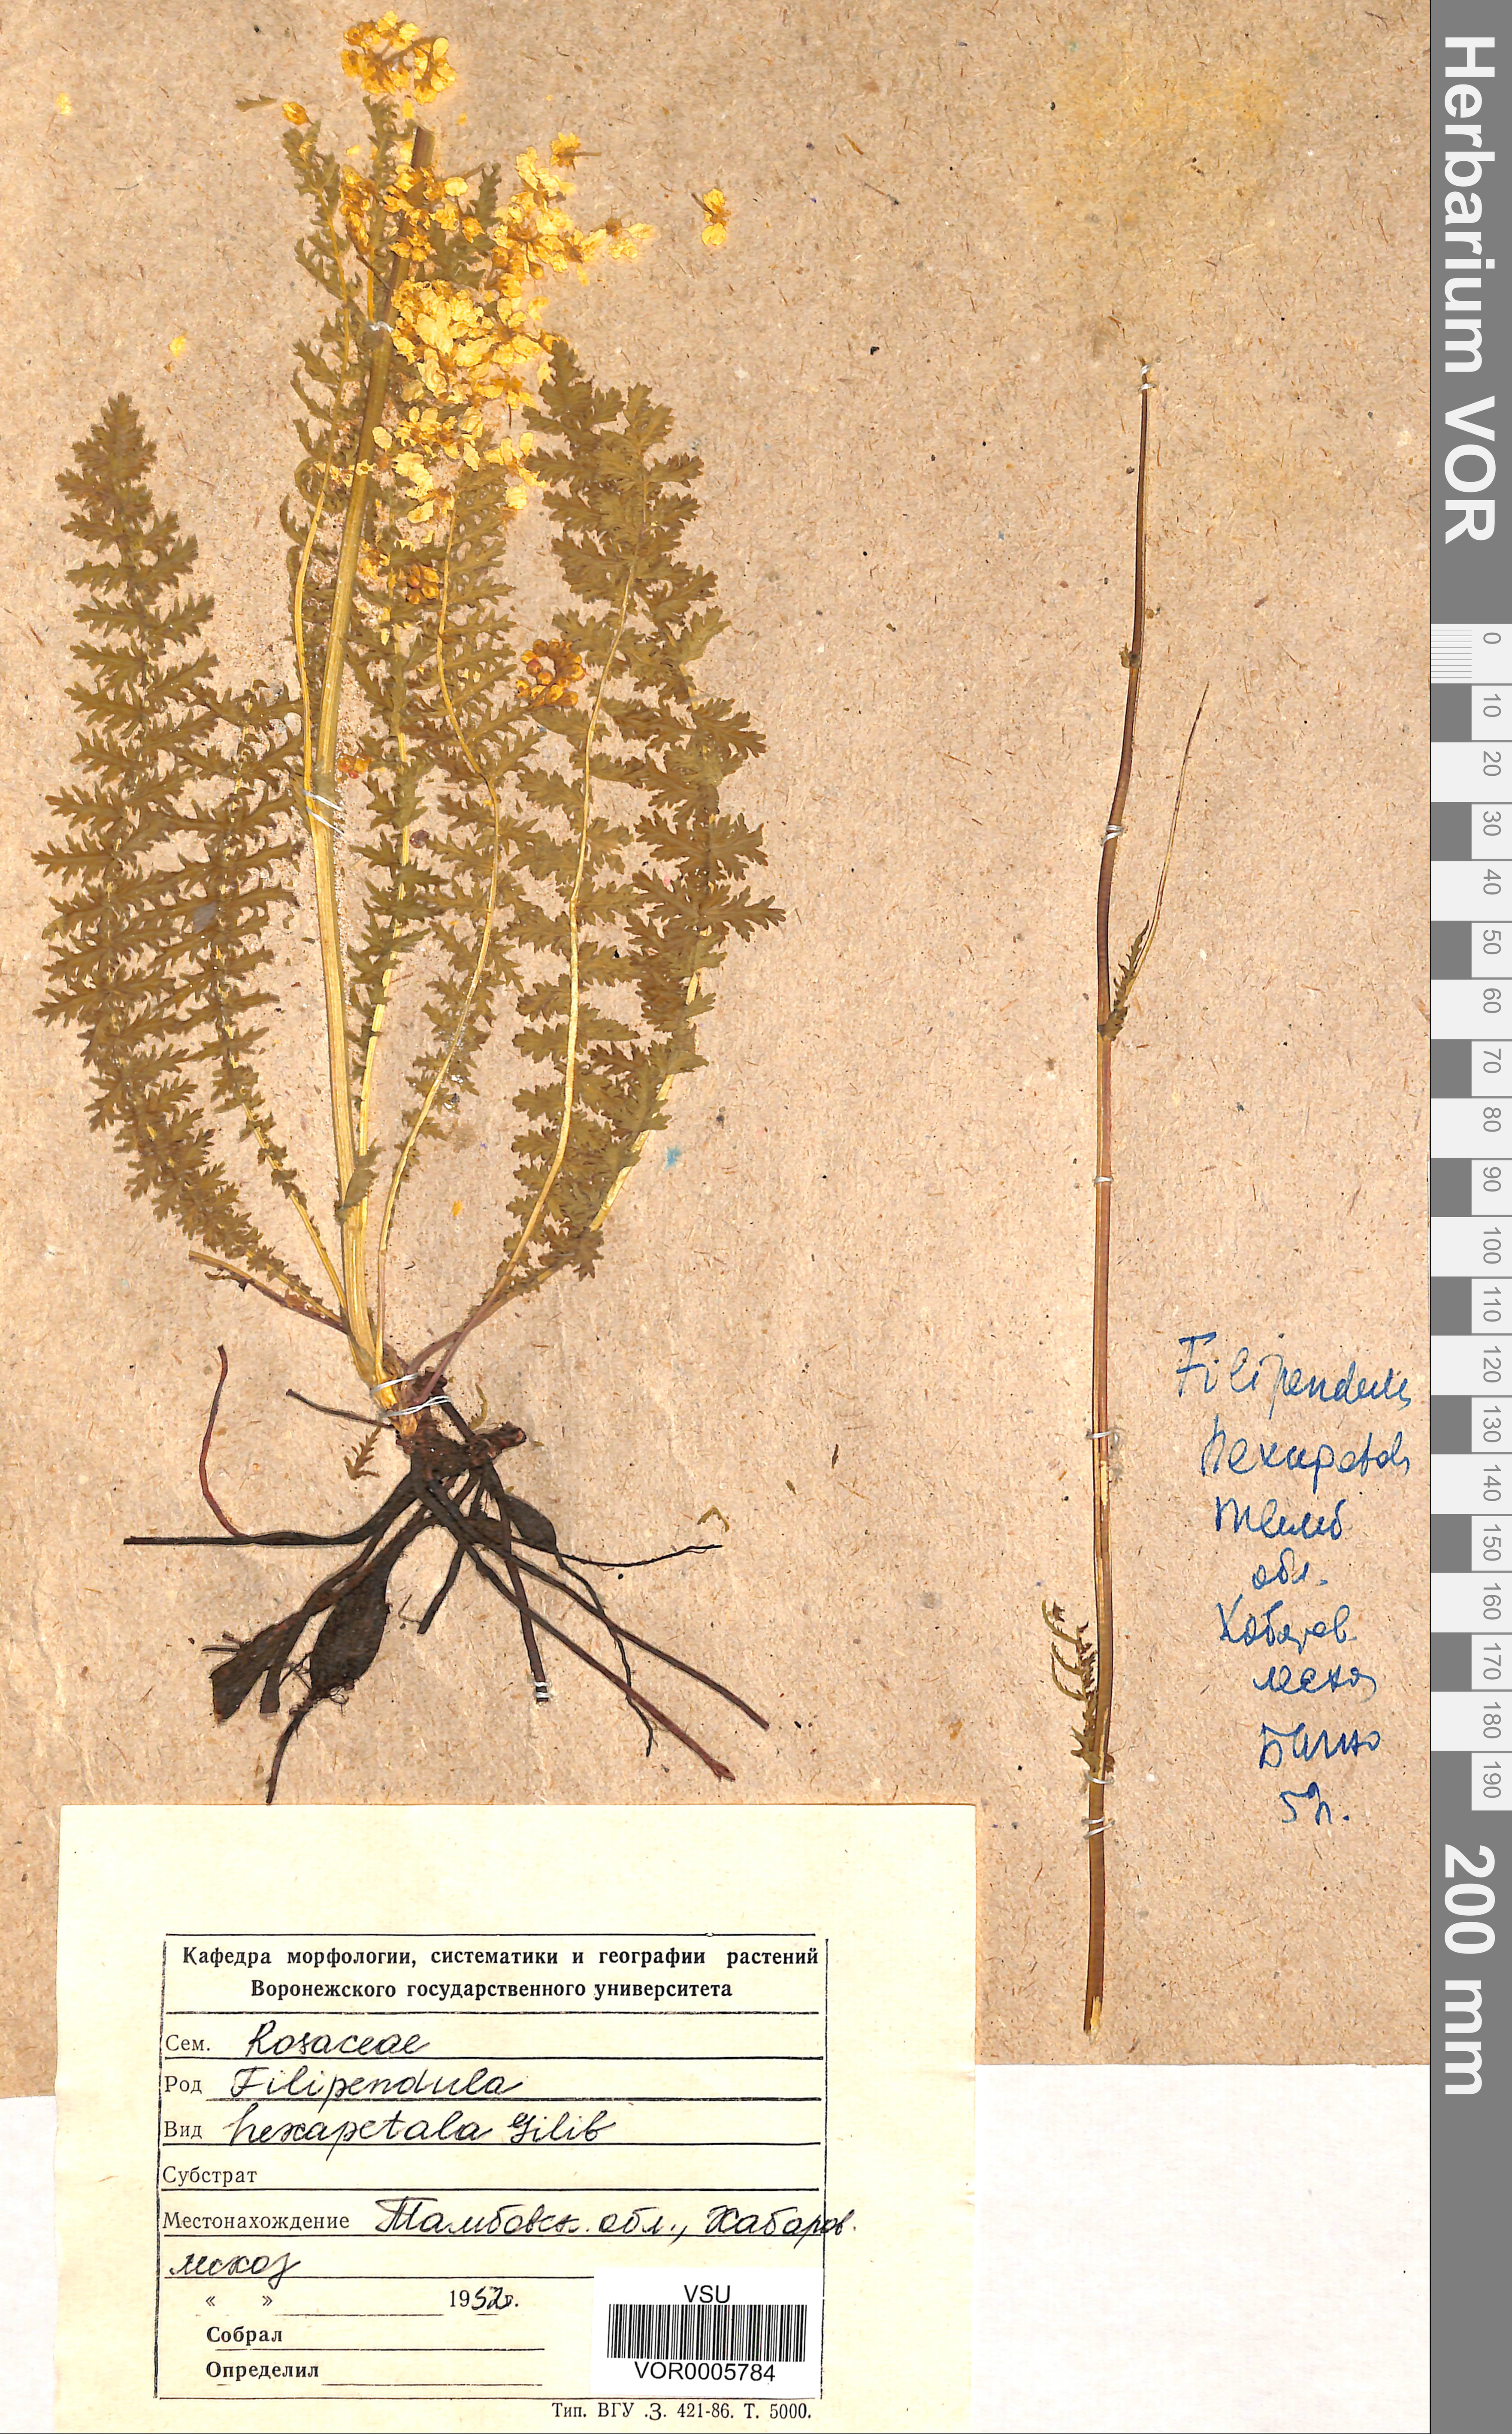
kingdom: Plantae
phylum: Tracheophyta
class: Magnoliopsida
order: Rosales
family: Rosaceae
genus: Filipendula
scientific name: Filipendula vulgaris
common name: Dropwort
